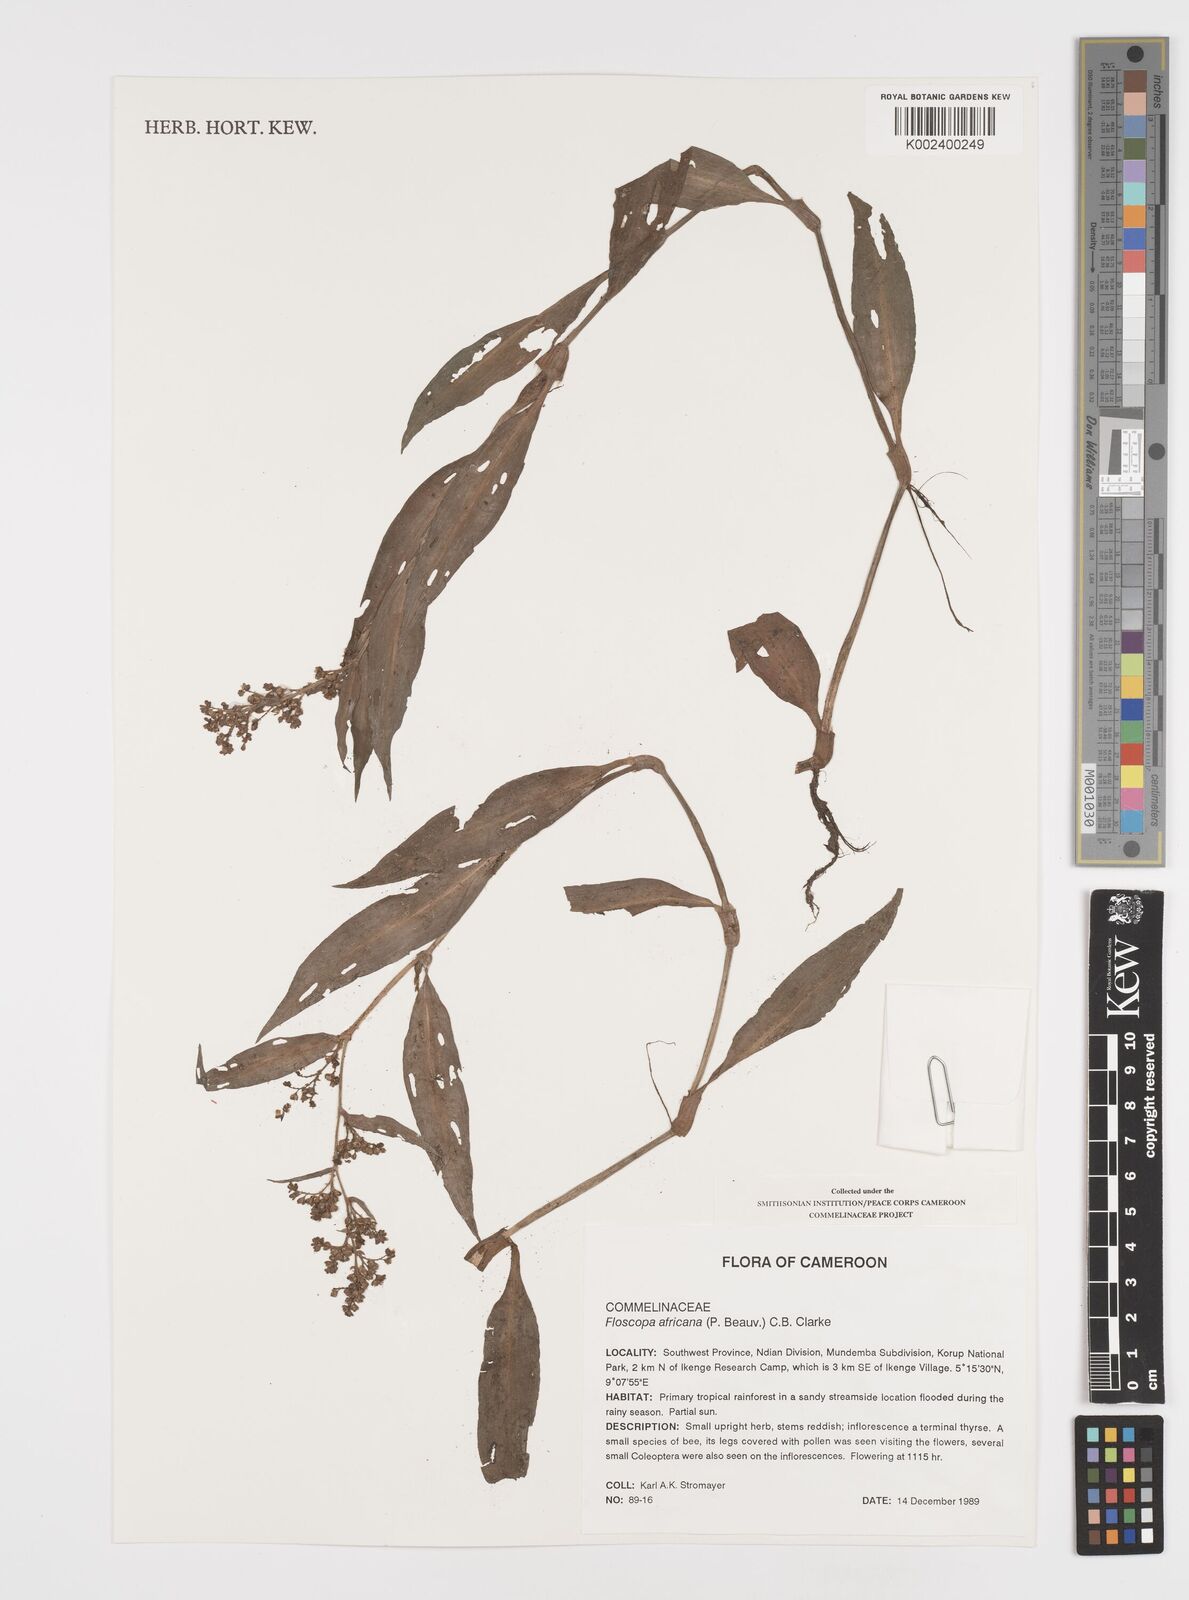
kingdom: Plantae
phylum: Tracheophyta
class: Liliopsida
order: Commelinales
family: Commelinaceae
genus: Floscopa
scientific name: Floscopa africana
